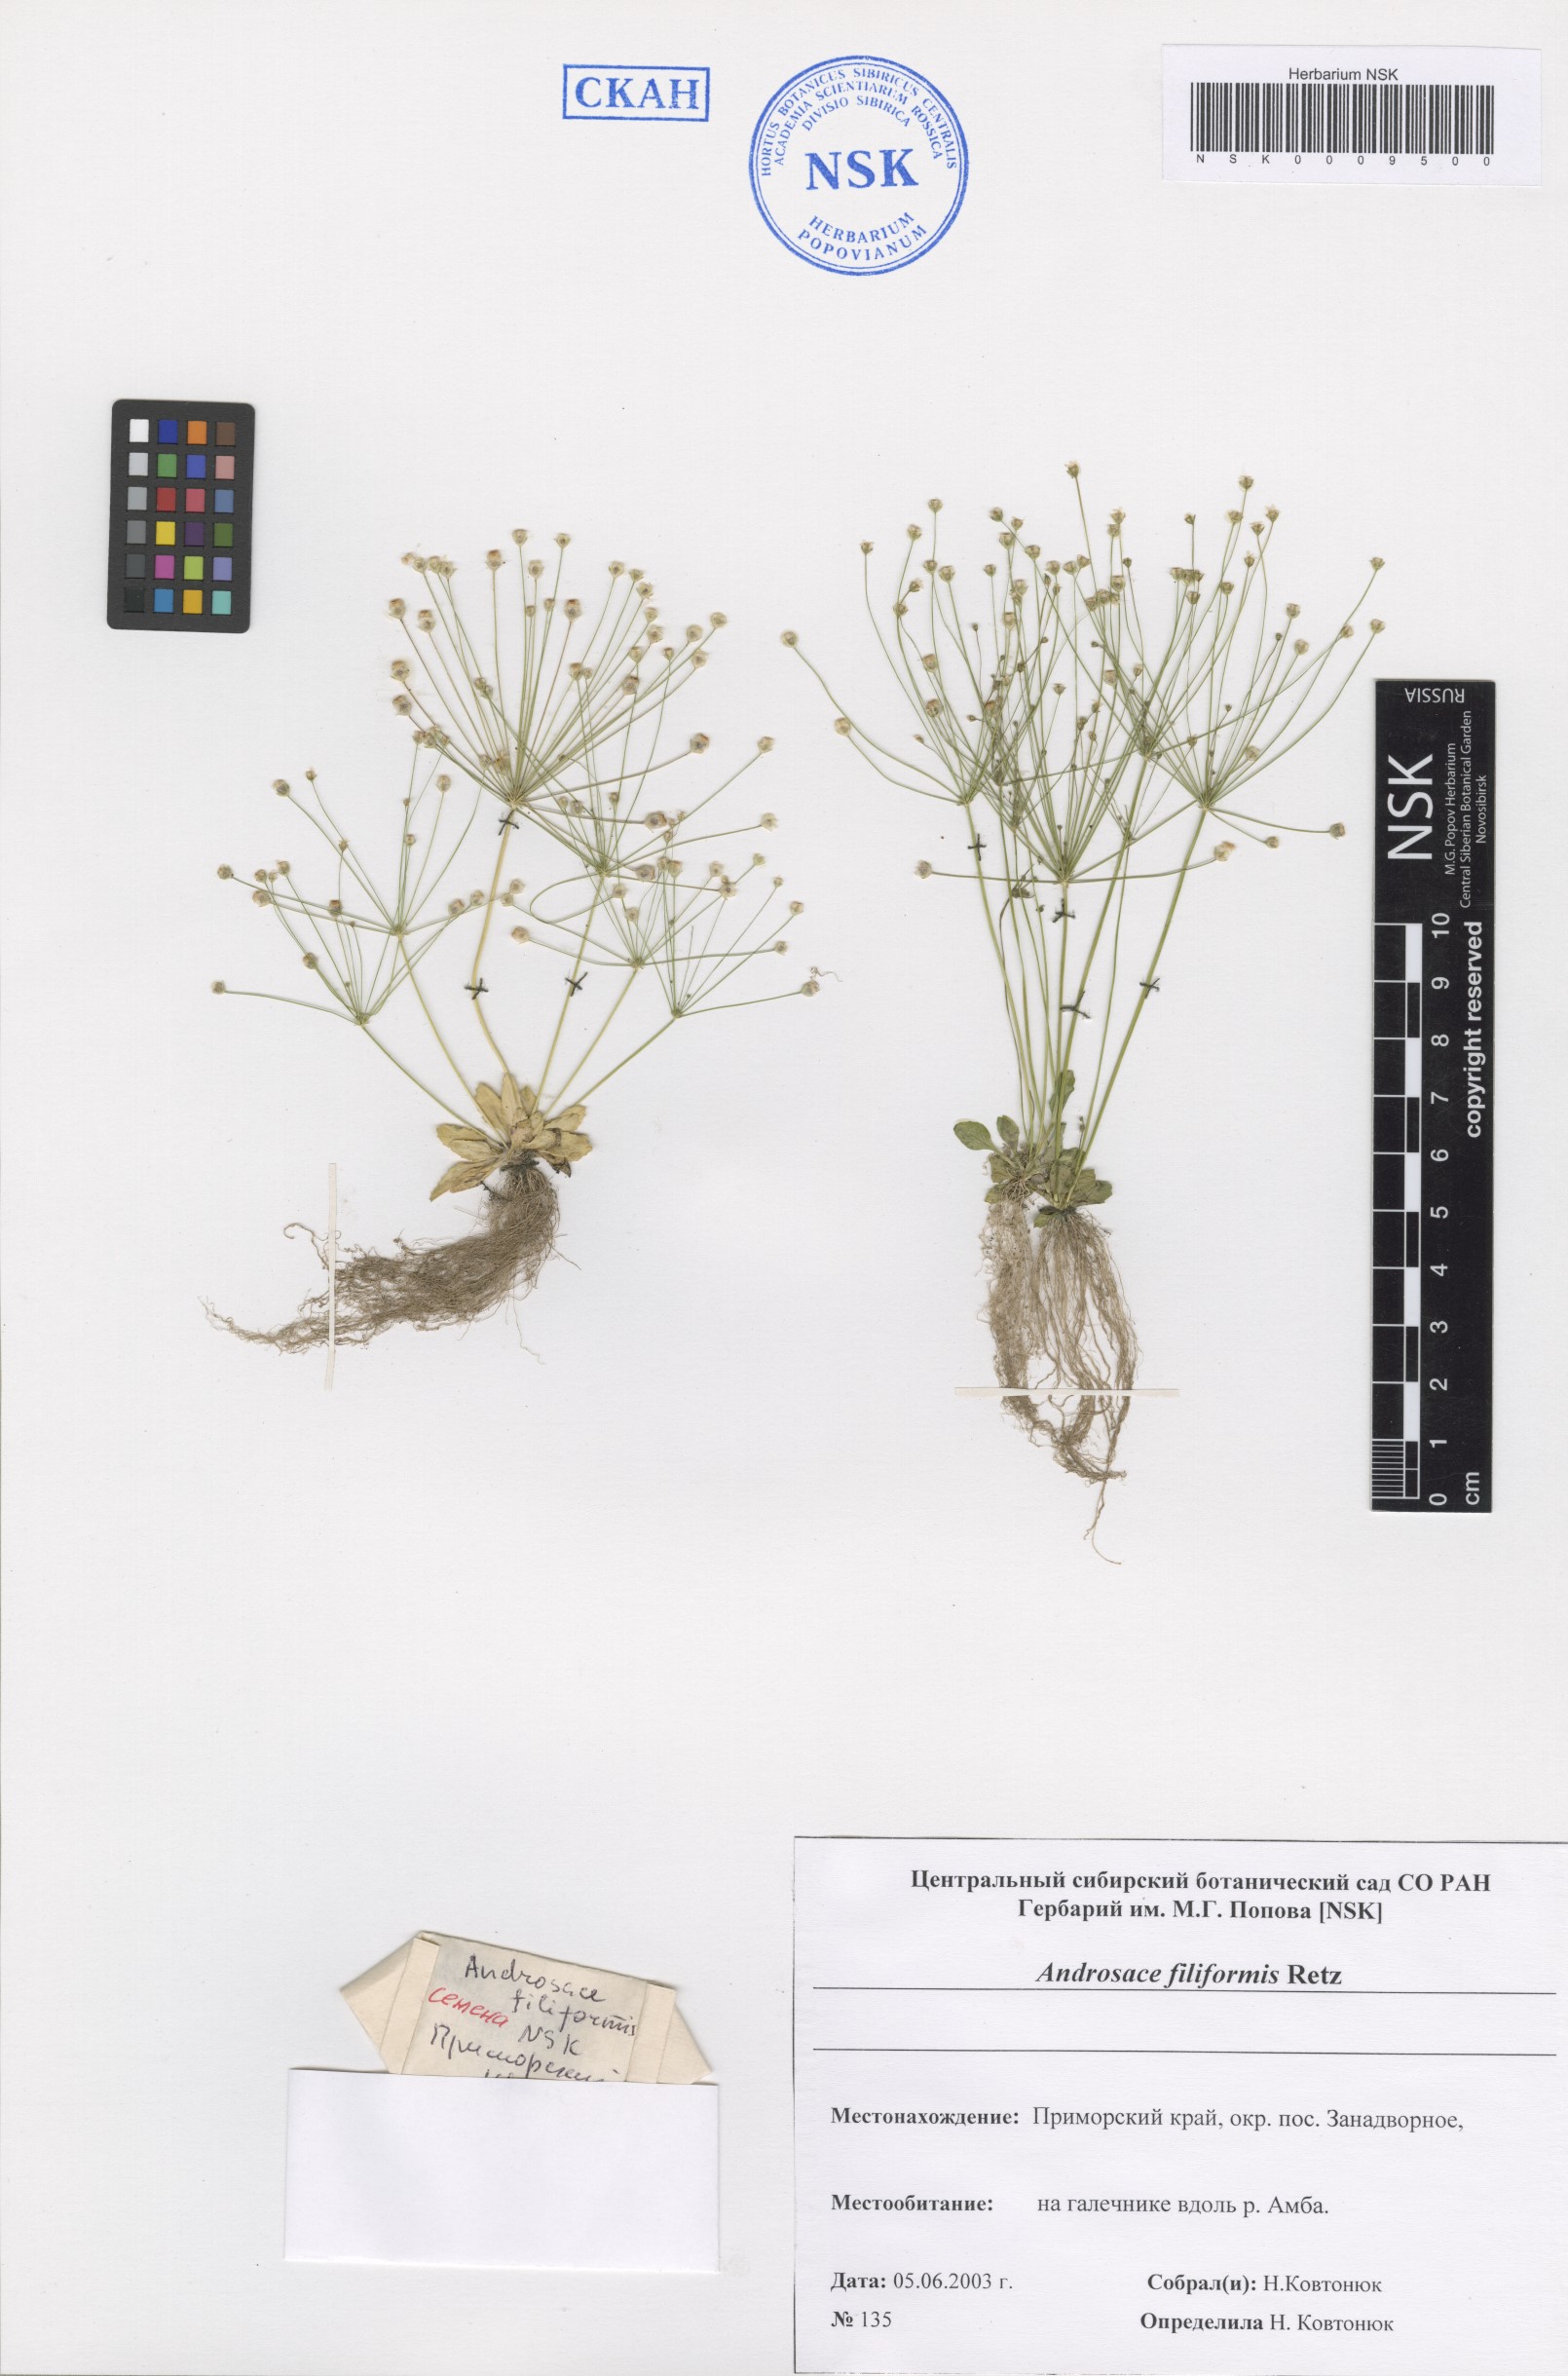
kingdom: Plantae
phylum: Tracheophyta
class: Magnoliopsida
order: Ericales
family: Primulaceae
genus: Androsace
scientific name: Androsace filiformis
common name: Filiform rock jasmine
